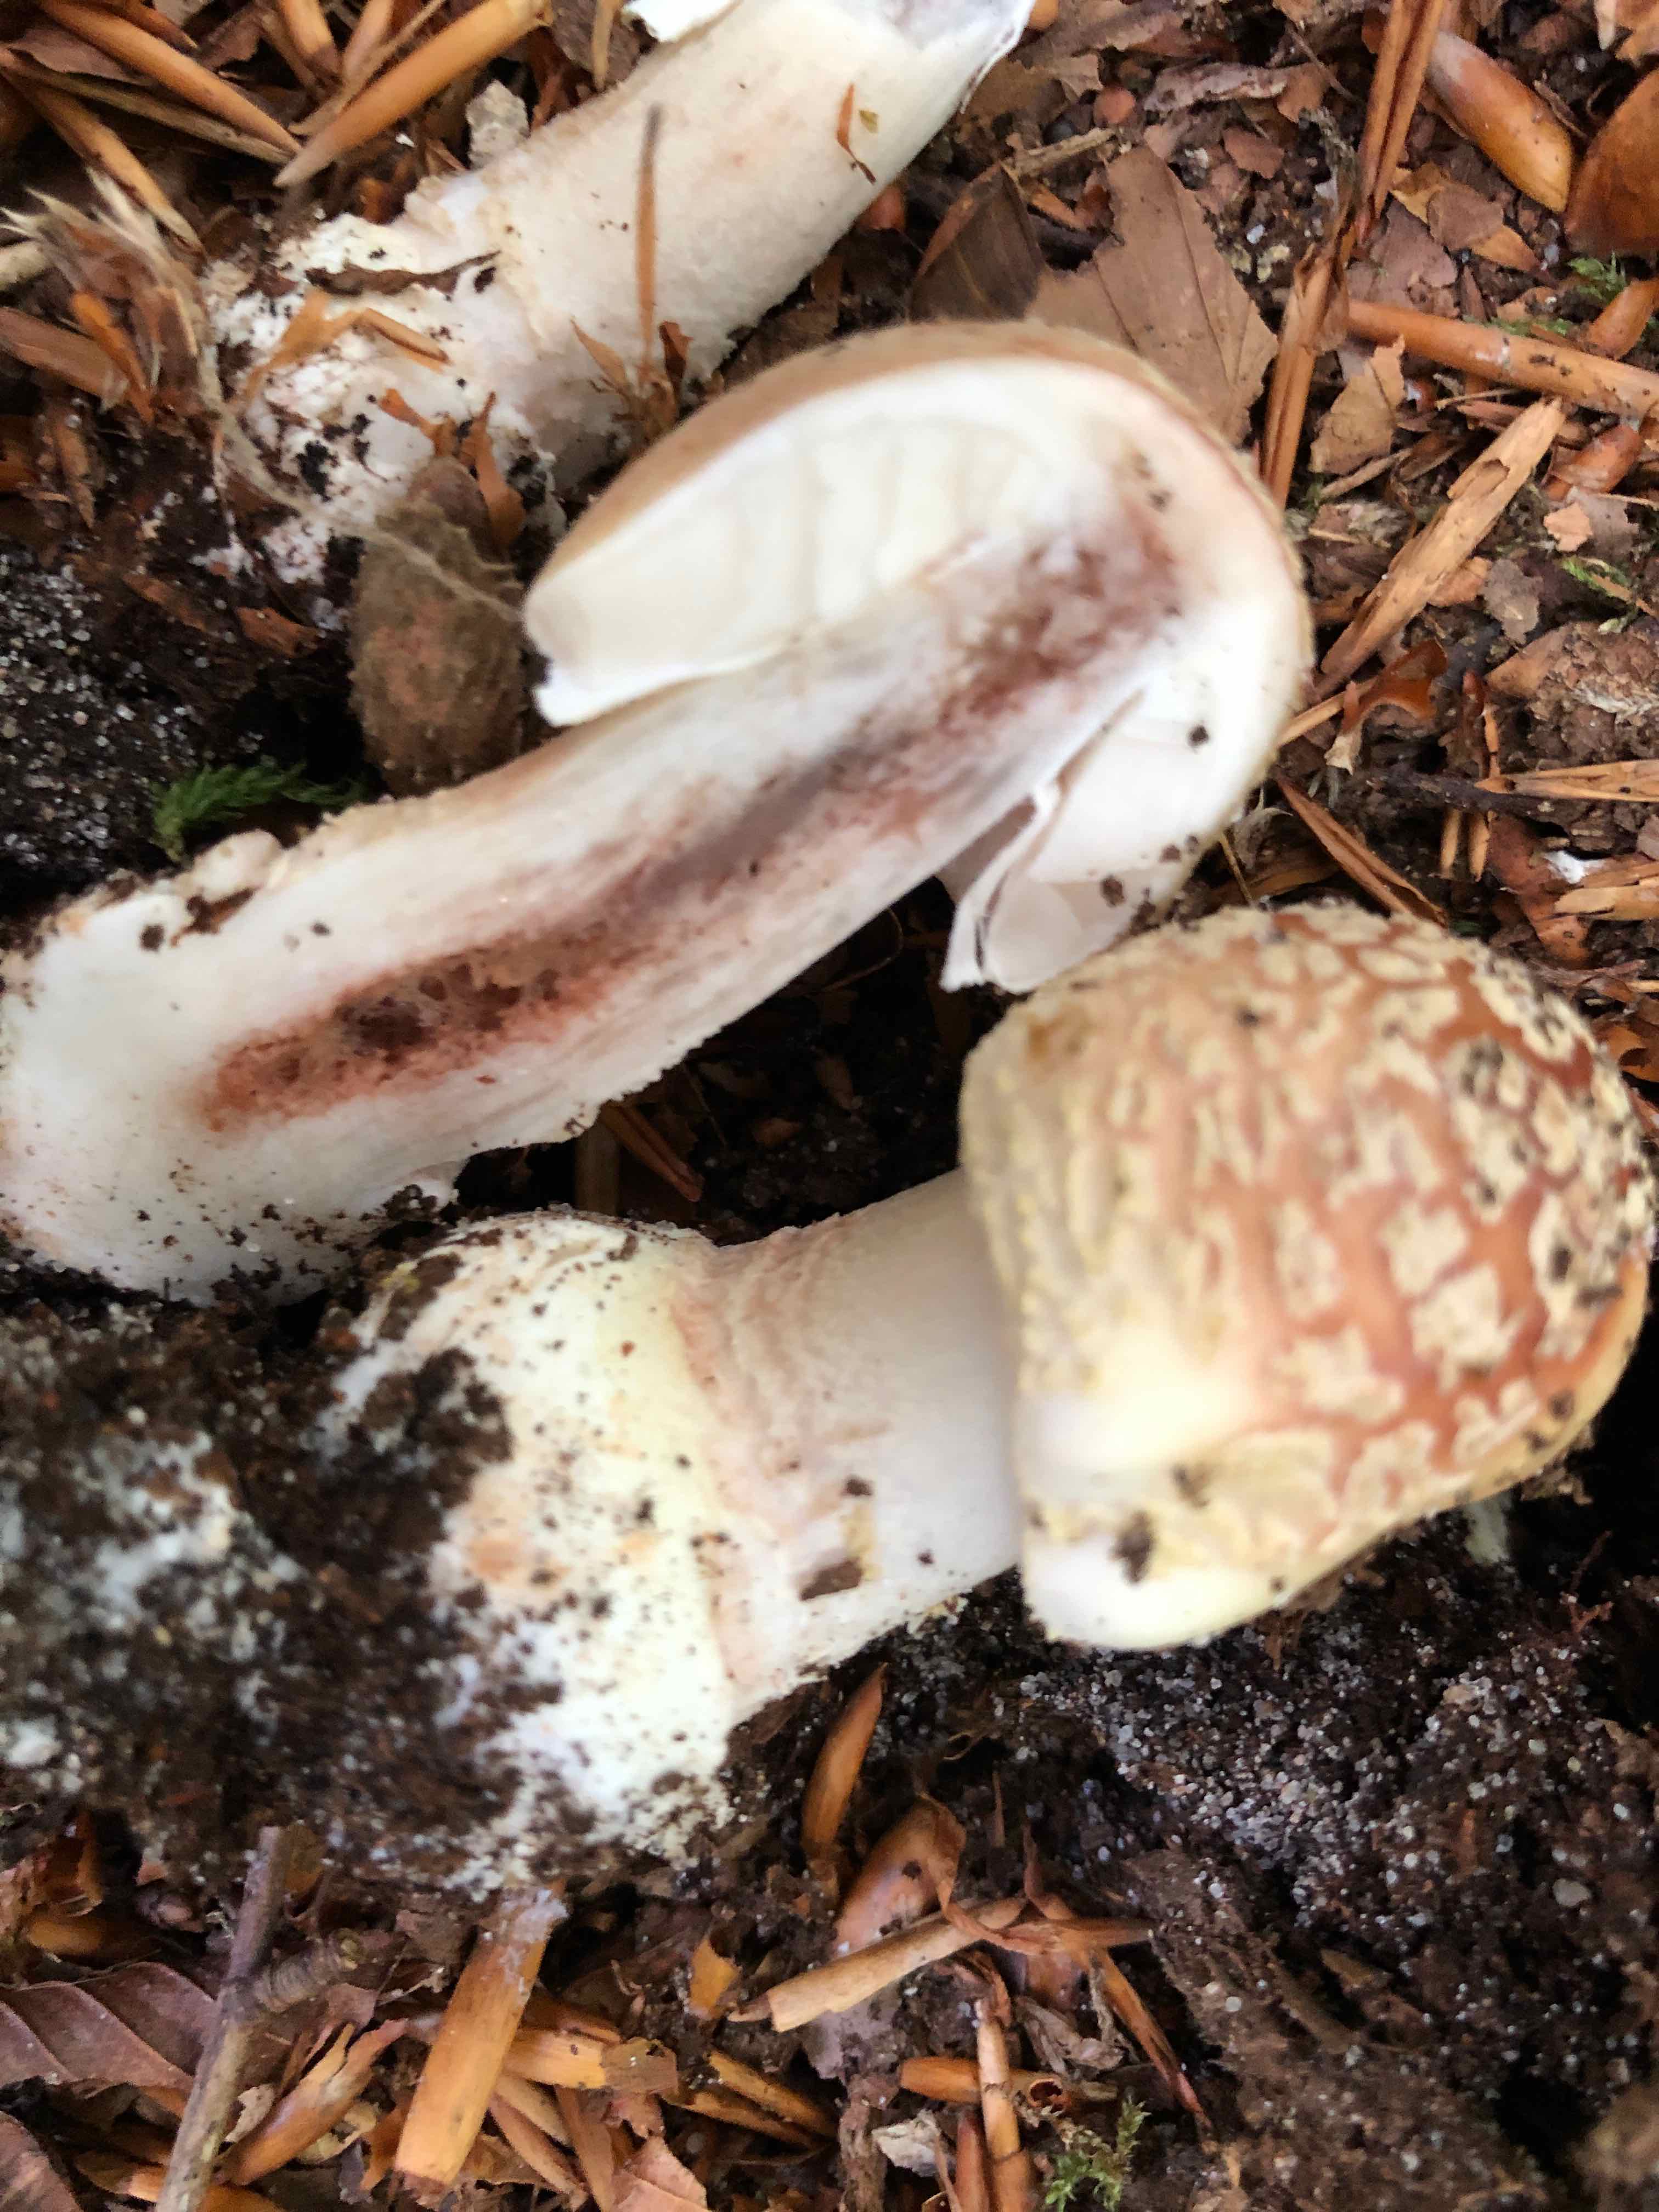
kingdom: Fungi
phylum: Basidiomycota
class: Agaricomycetes
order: Agaricales
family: Amanitaceae
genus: Amanita
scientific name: Amanita rubescens
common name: rødmende fluesvamp
